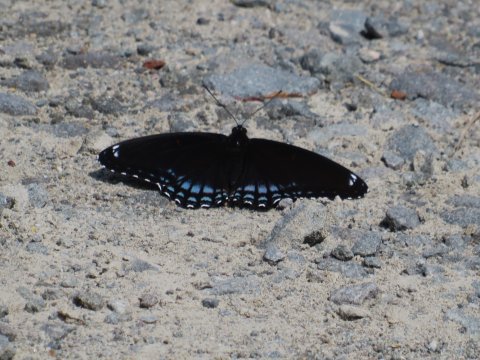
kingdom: Animalia
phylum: Arthropoda
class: Insecta
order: Lepidoptera
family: Nymphalidae
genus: Limenitis
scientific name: Limenitis arthemis
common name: Red-spotted Admiral
